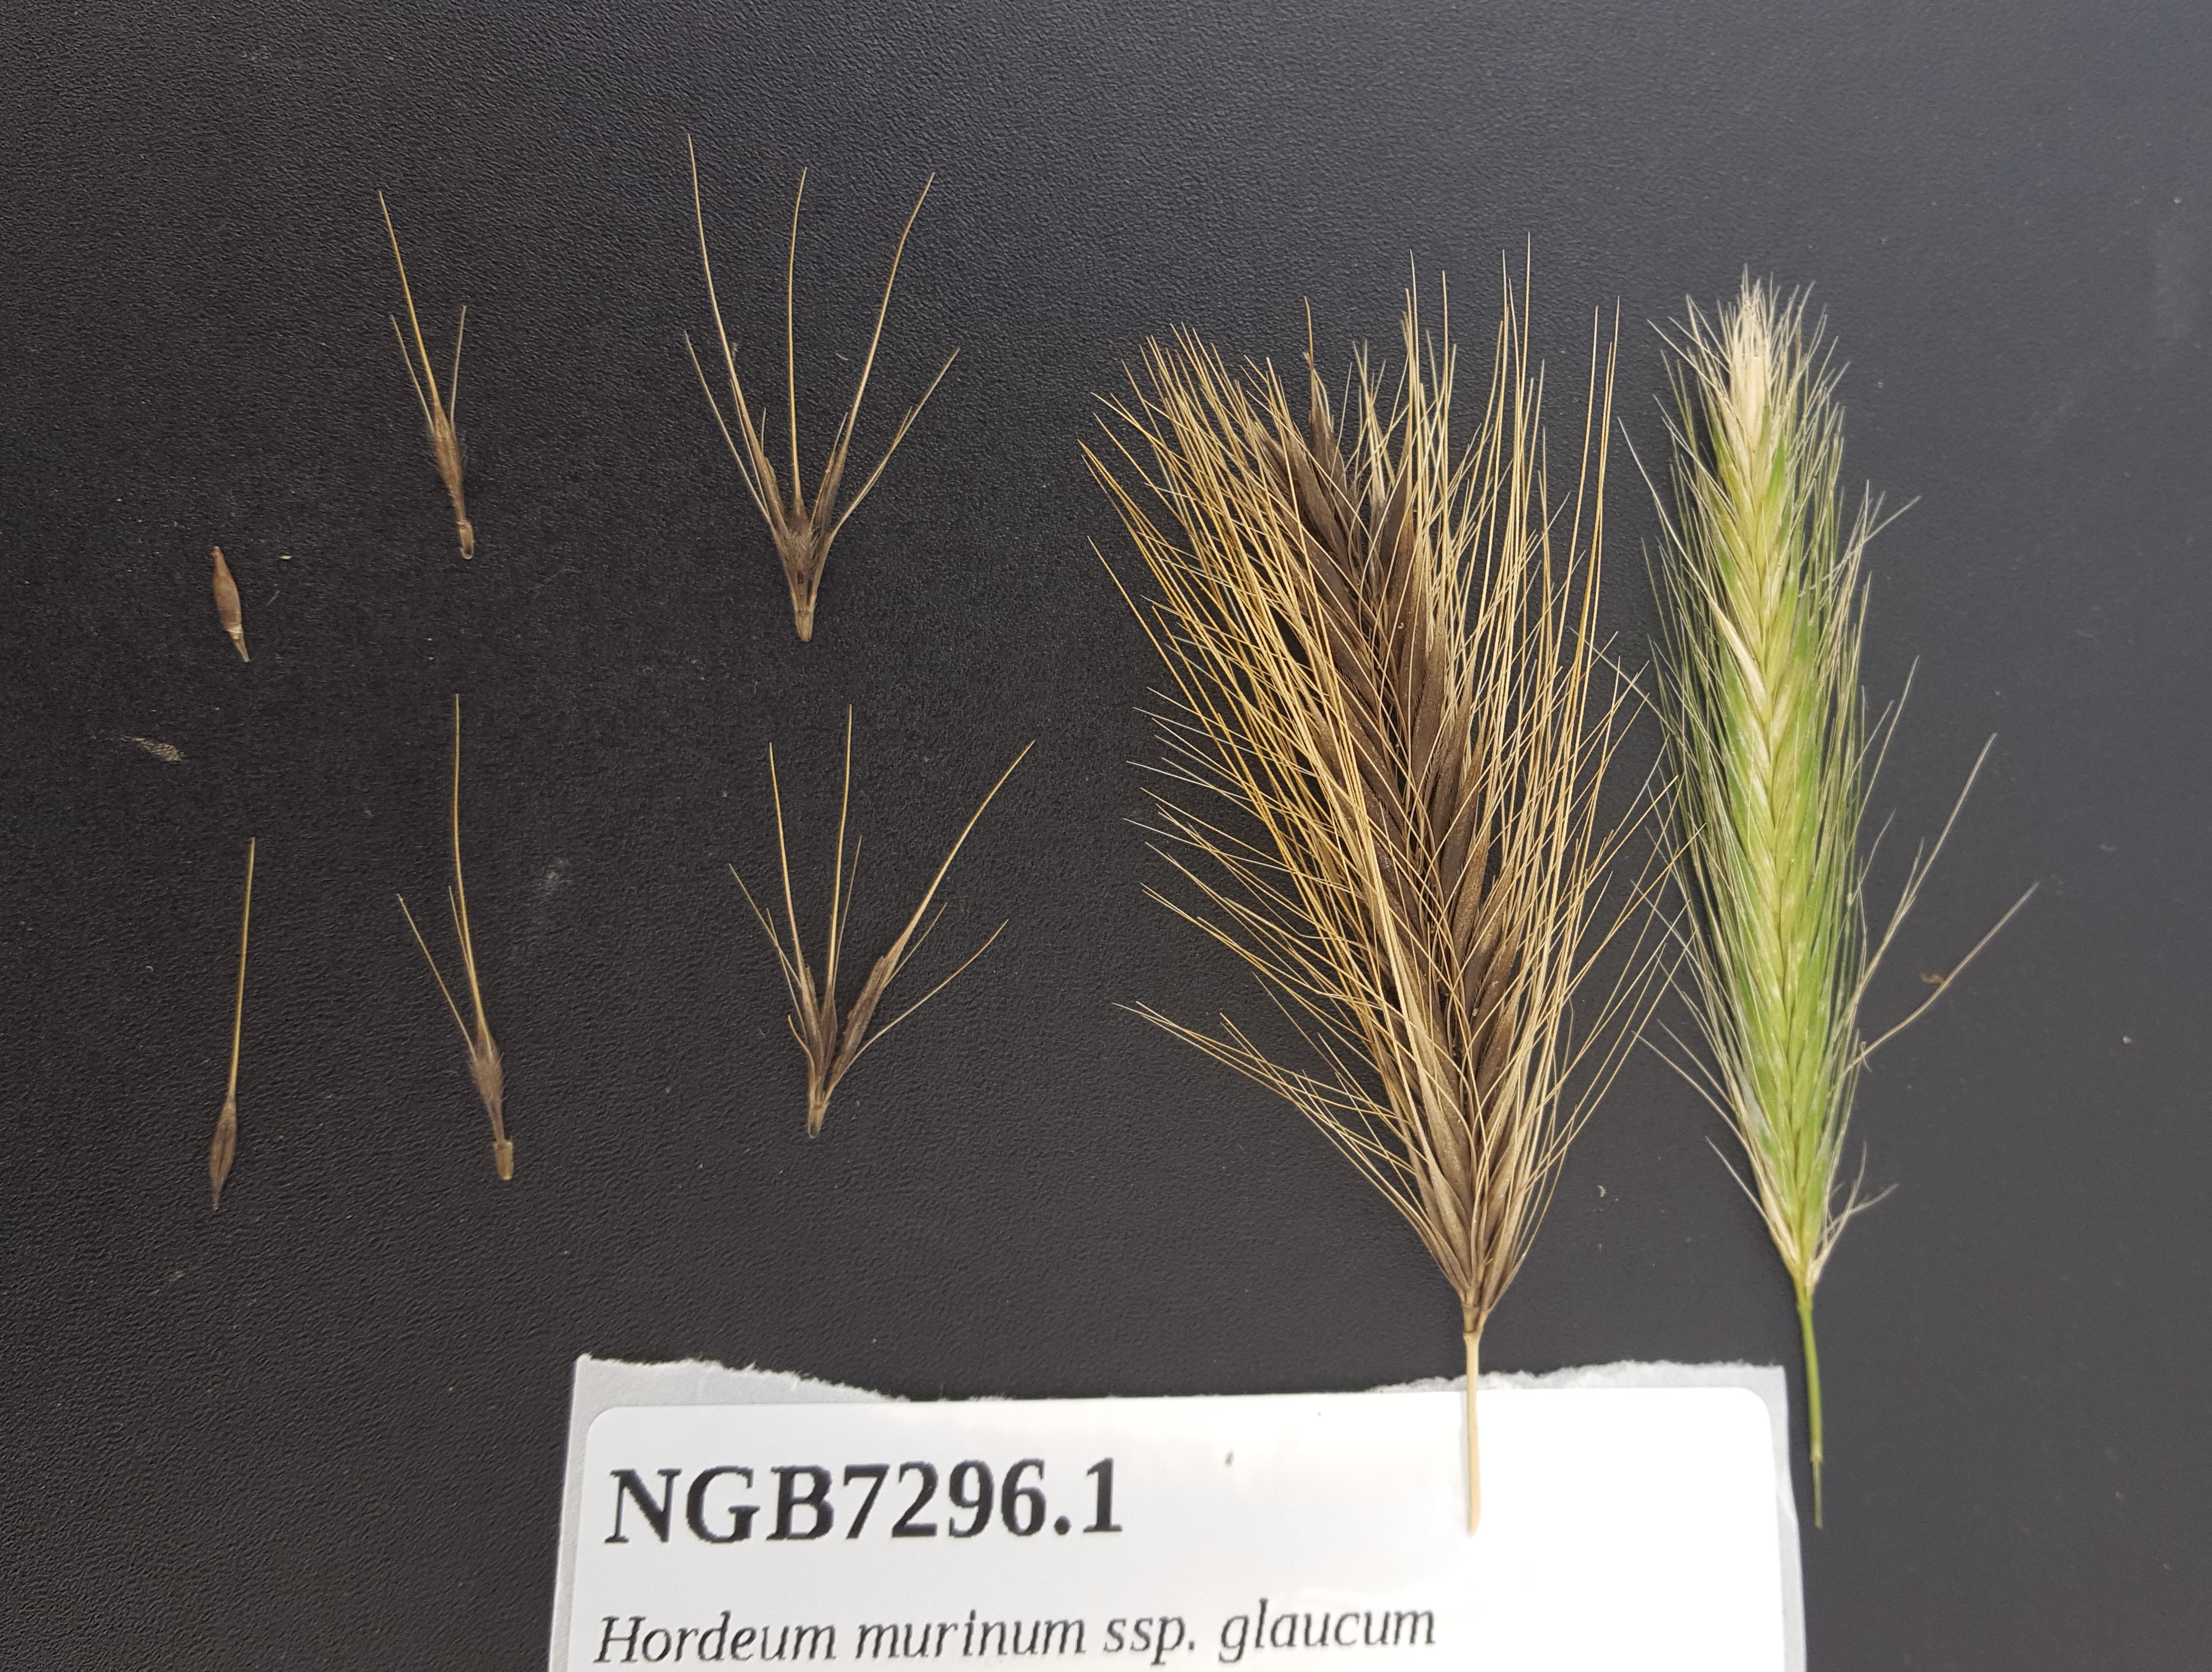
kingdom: Plantae
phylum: Tracheophyta
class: Liliopsida
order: Poales
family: Poaceae
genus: Hordeum
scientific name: Hordeum murinum
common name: Wall barley
